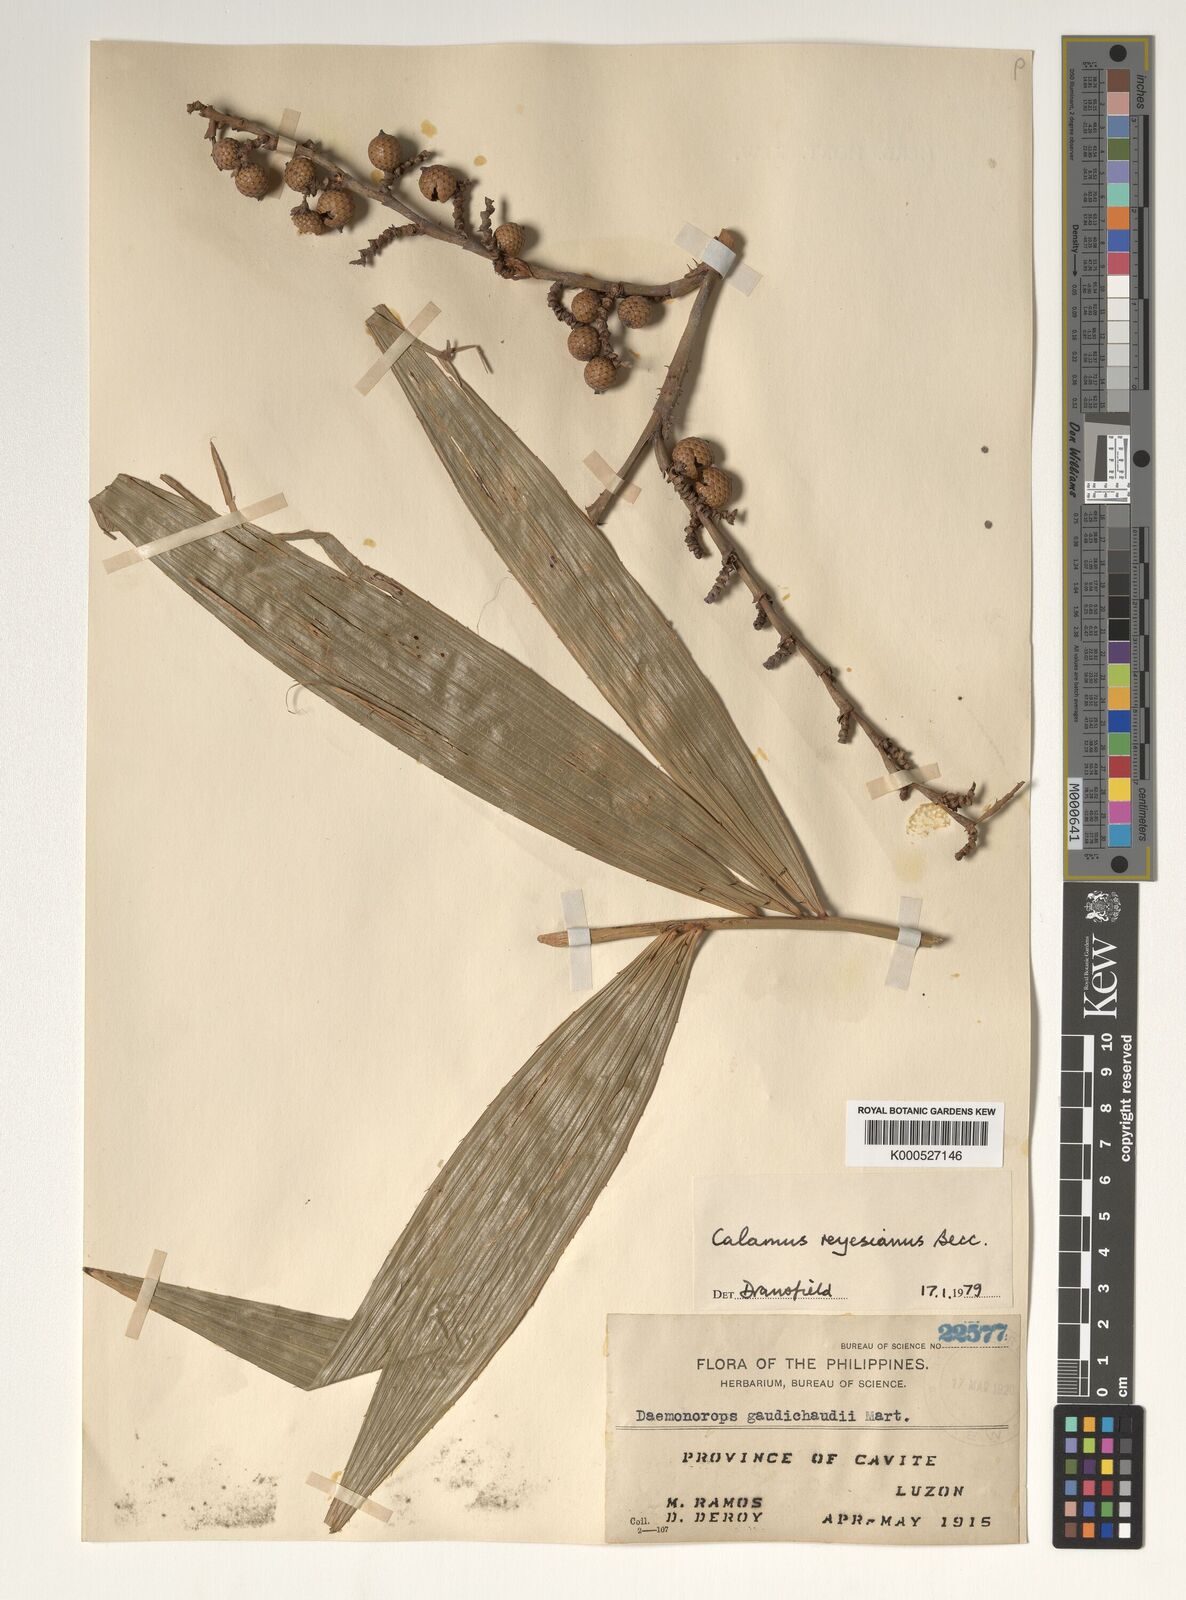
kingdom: Plantae
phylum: Tracheophyta
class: Liliopsida
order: Arecales
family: Arecaceae
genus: Calamus
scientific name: Calamus moseleyanus
